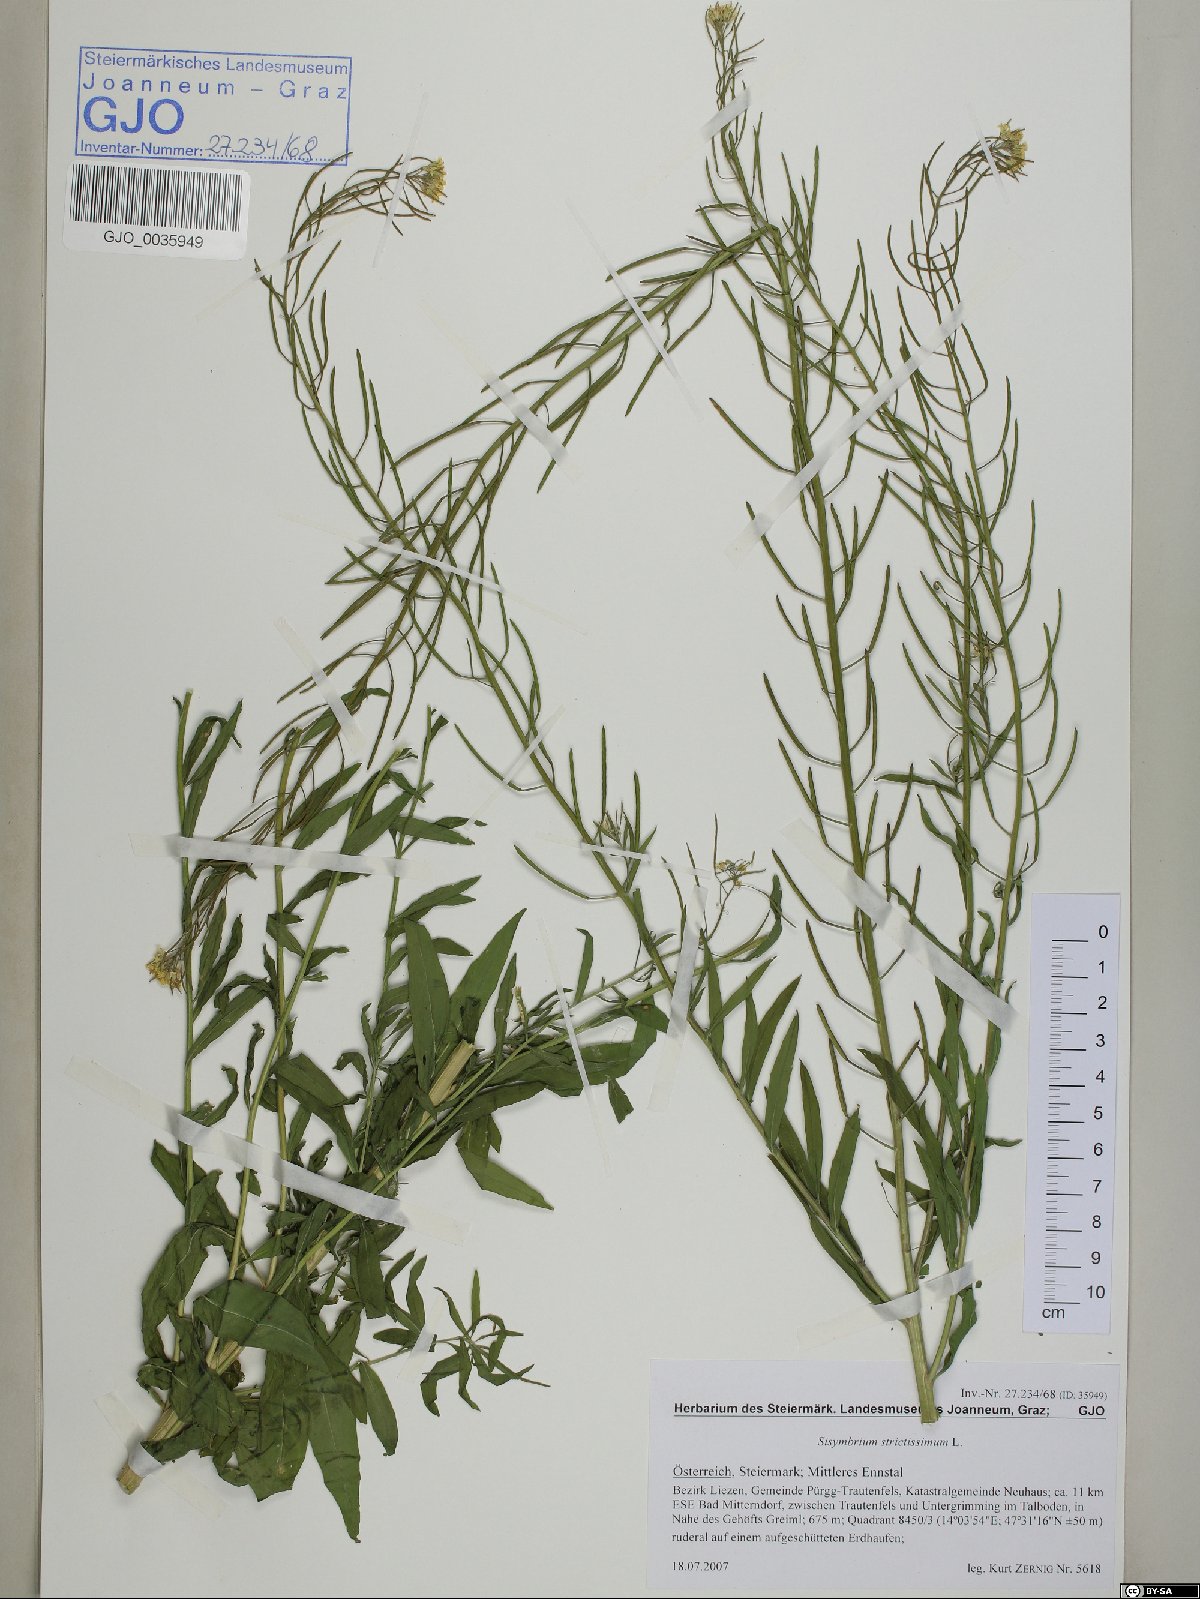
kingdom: Plantae
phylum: Tracheophyta
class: Magnoliopsida
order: Brassicales
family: Brassicaceae
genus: Sisymbrium
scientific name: Sisymbrium strictissimum
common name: Perennial rocket
